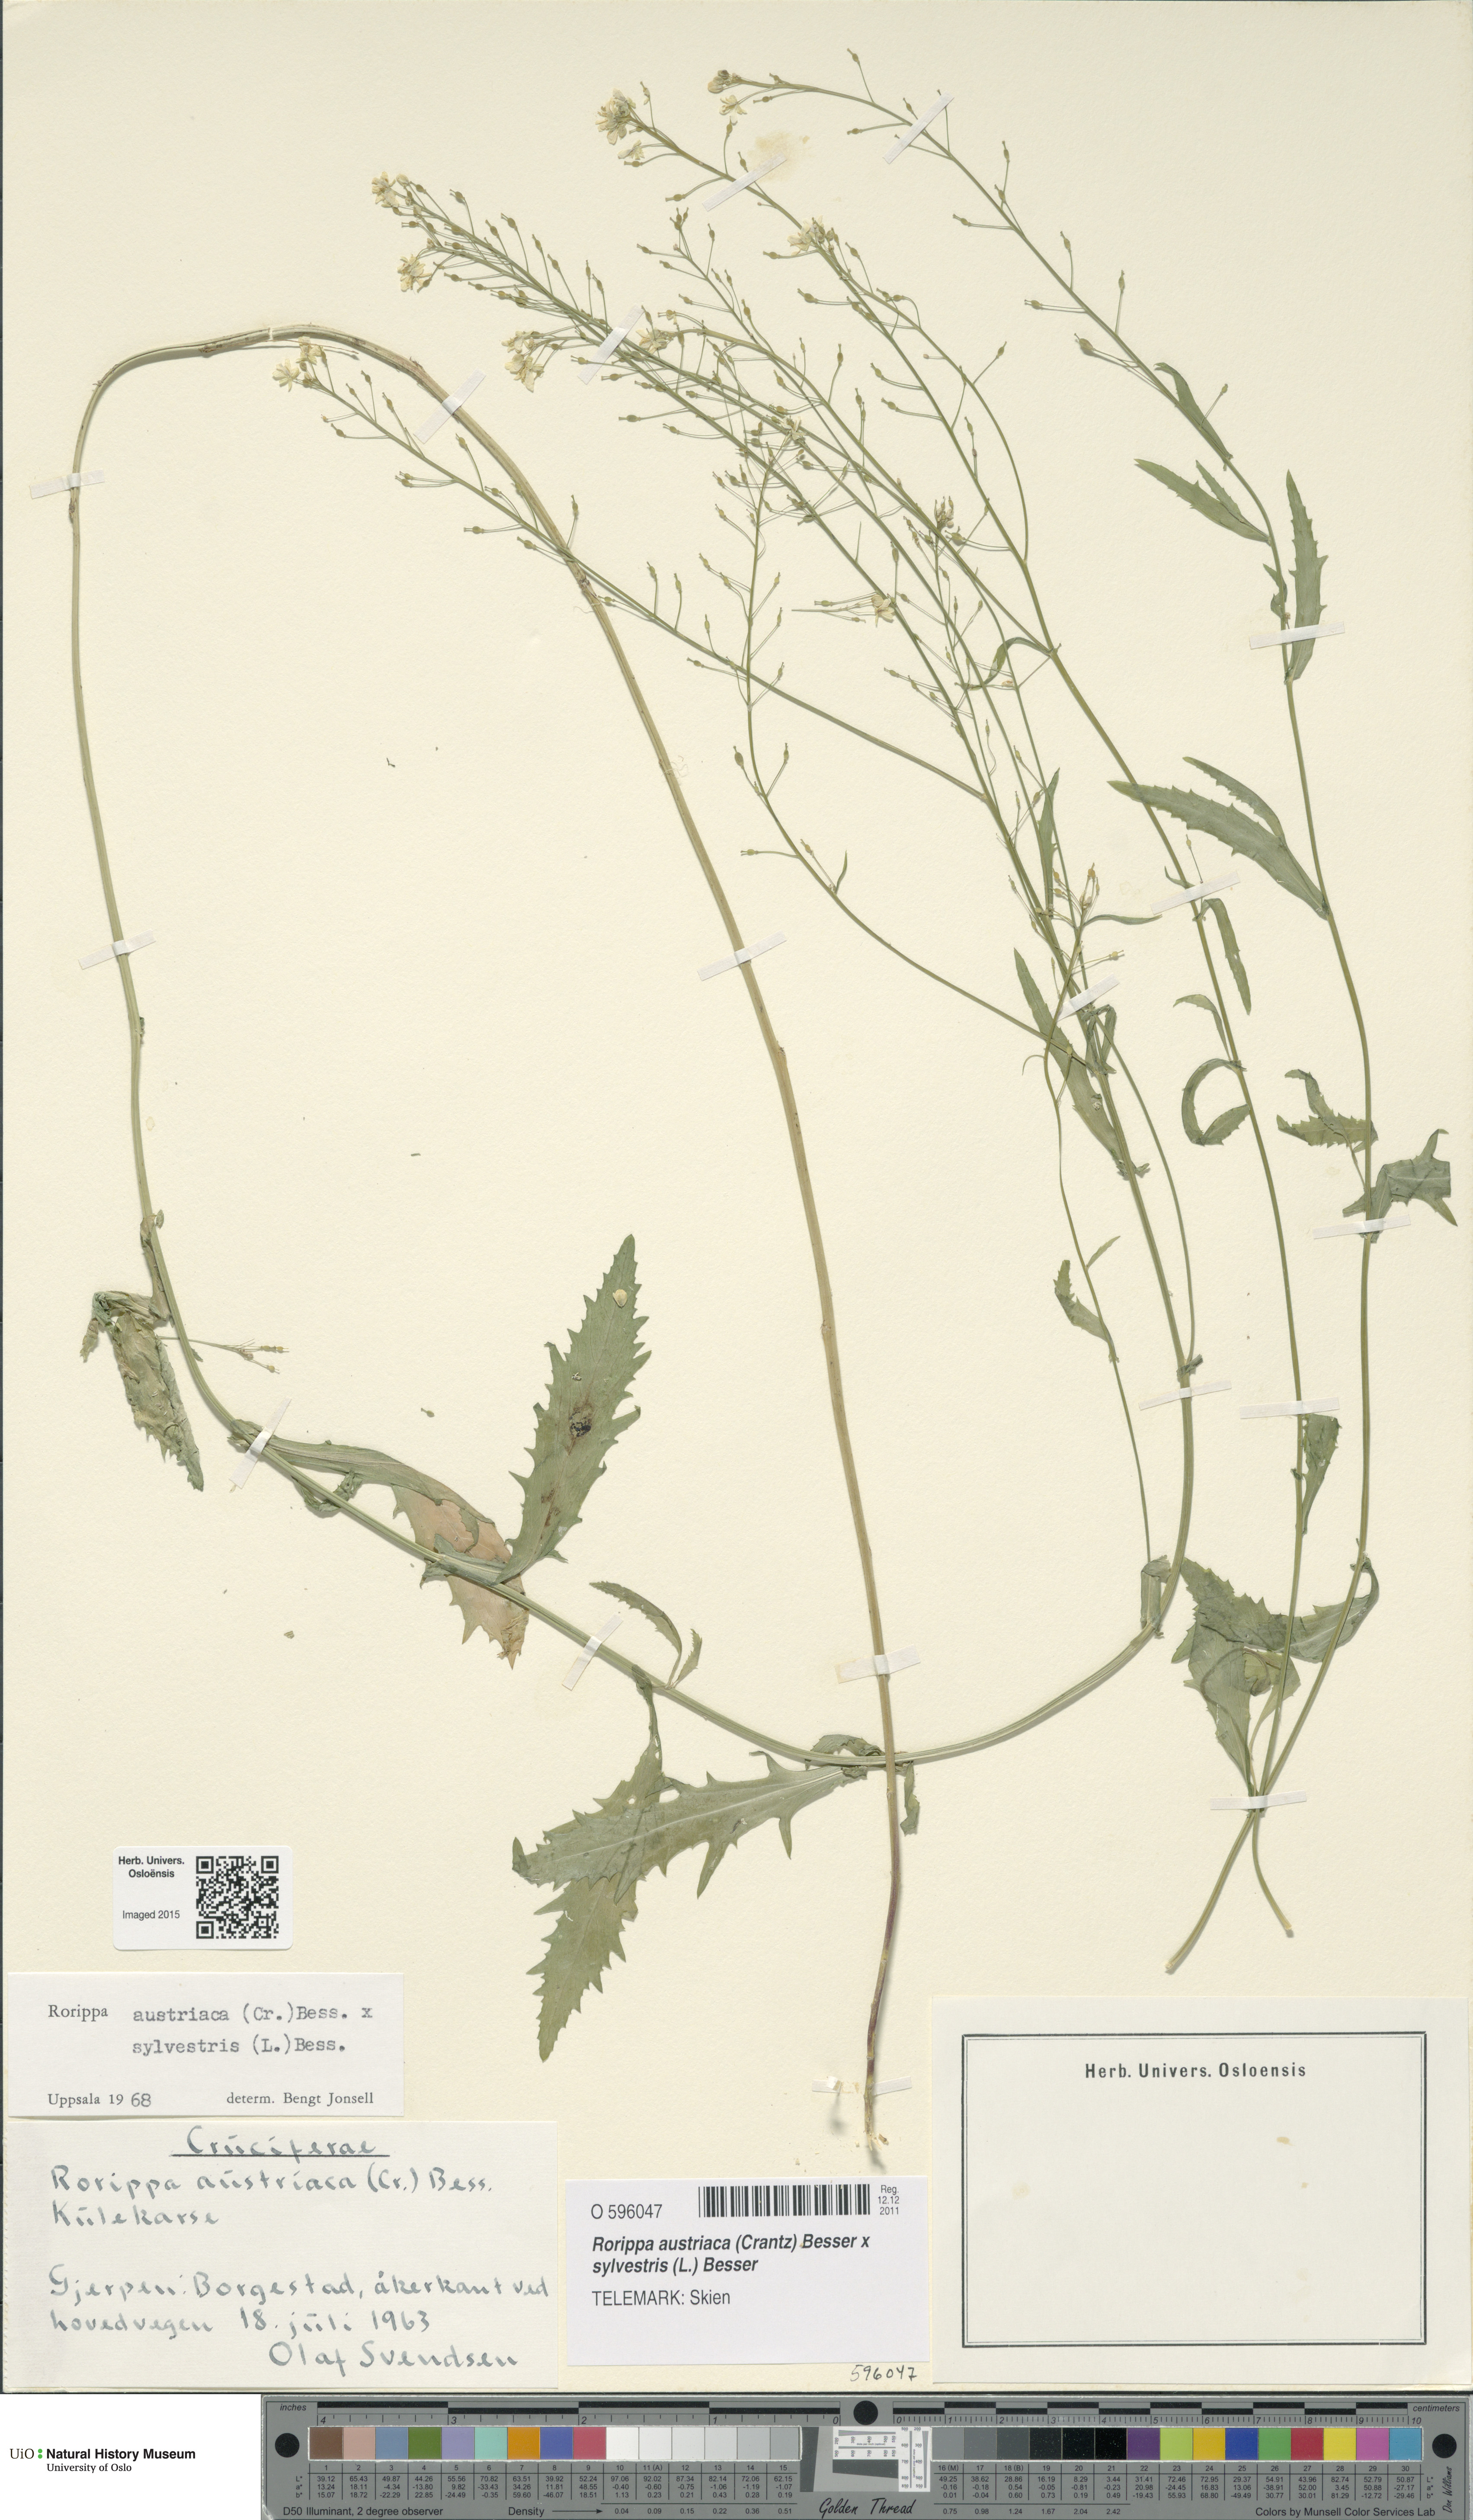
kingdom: Plantae
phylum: Tracheophyta
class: Magnoliopsida
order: Brassicales
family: Brassicaceae
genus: Rorippa
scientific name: Rorippa
